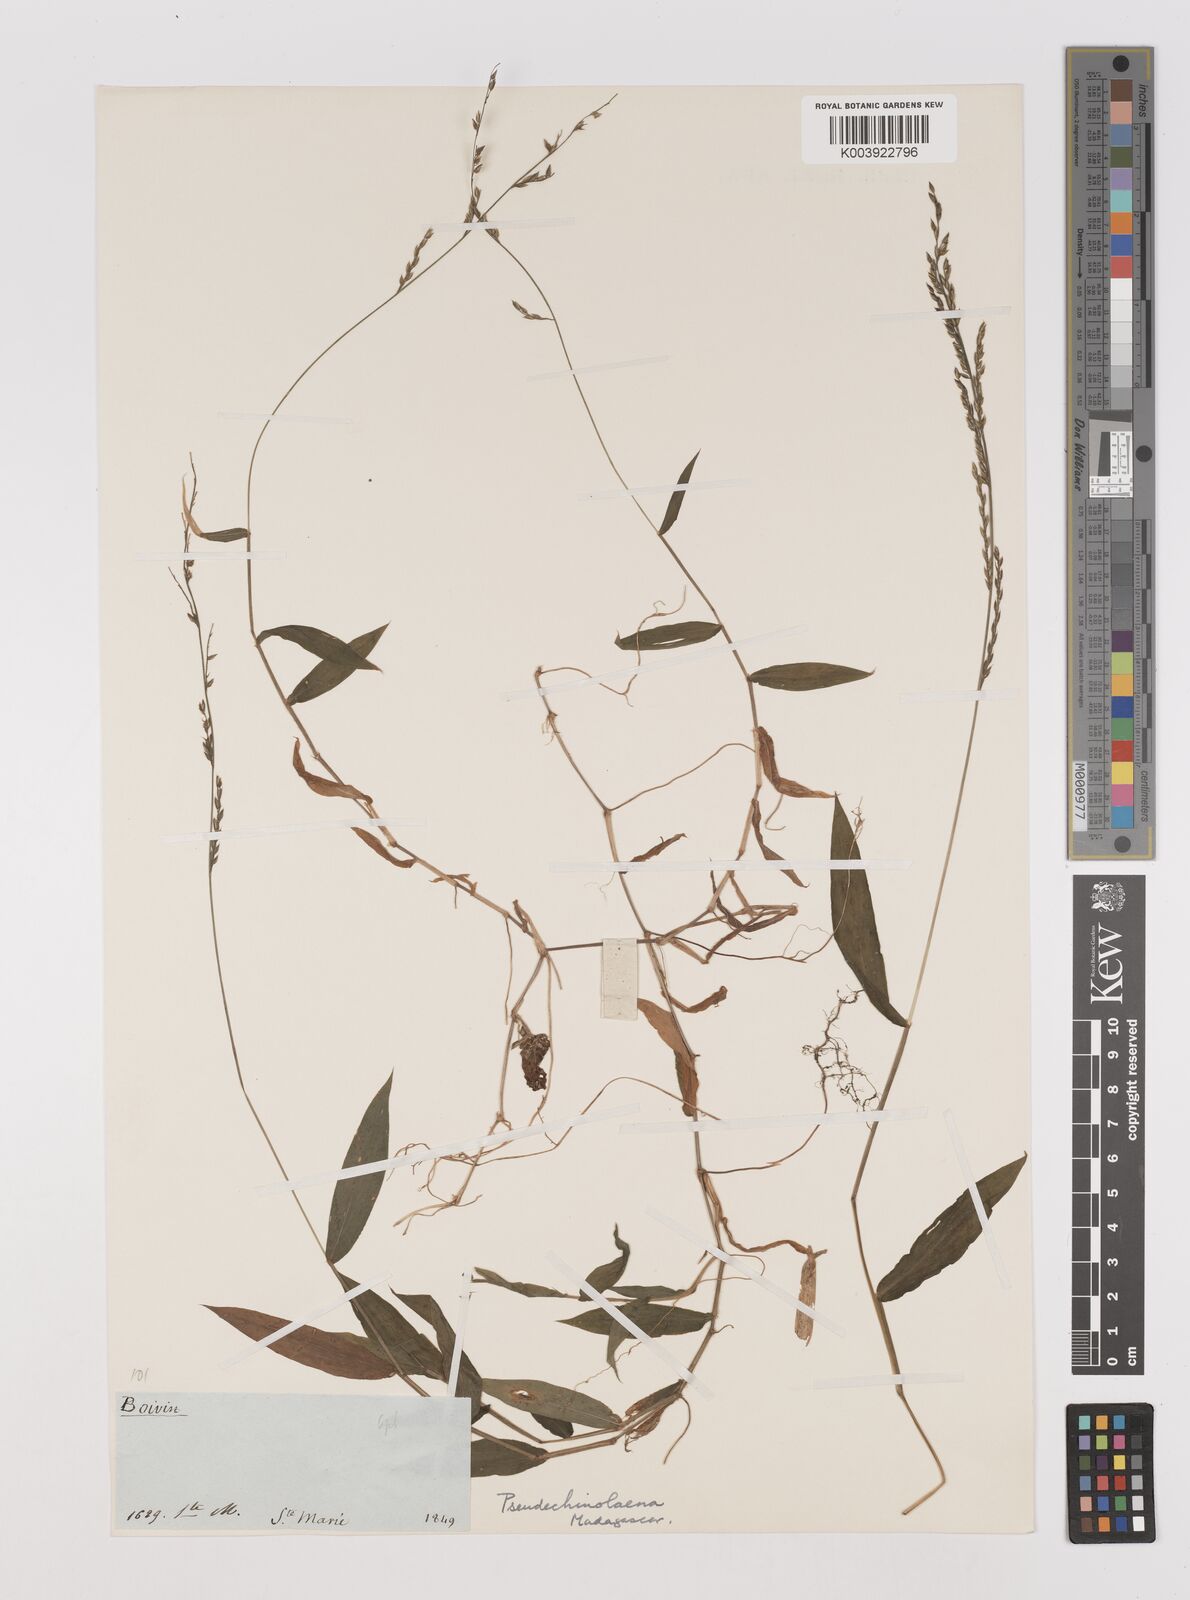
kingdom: Plantae
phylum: Tracheophyta
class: Liliopsida
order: Poales
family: Poaceae
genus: Pseudechinolaena
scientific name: Pseudechinolaena polystachya
